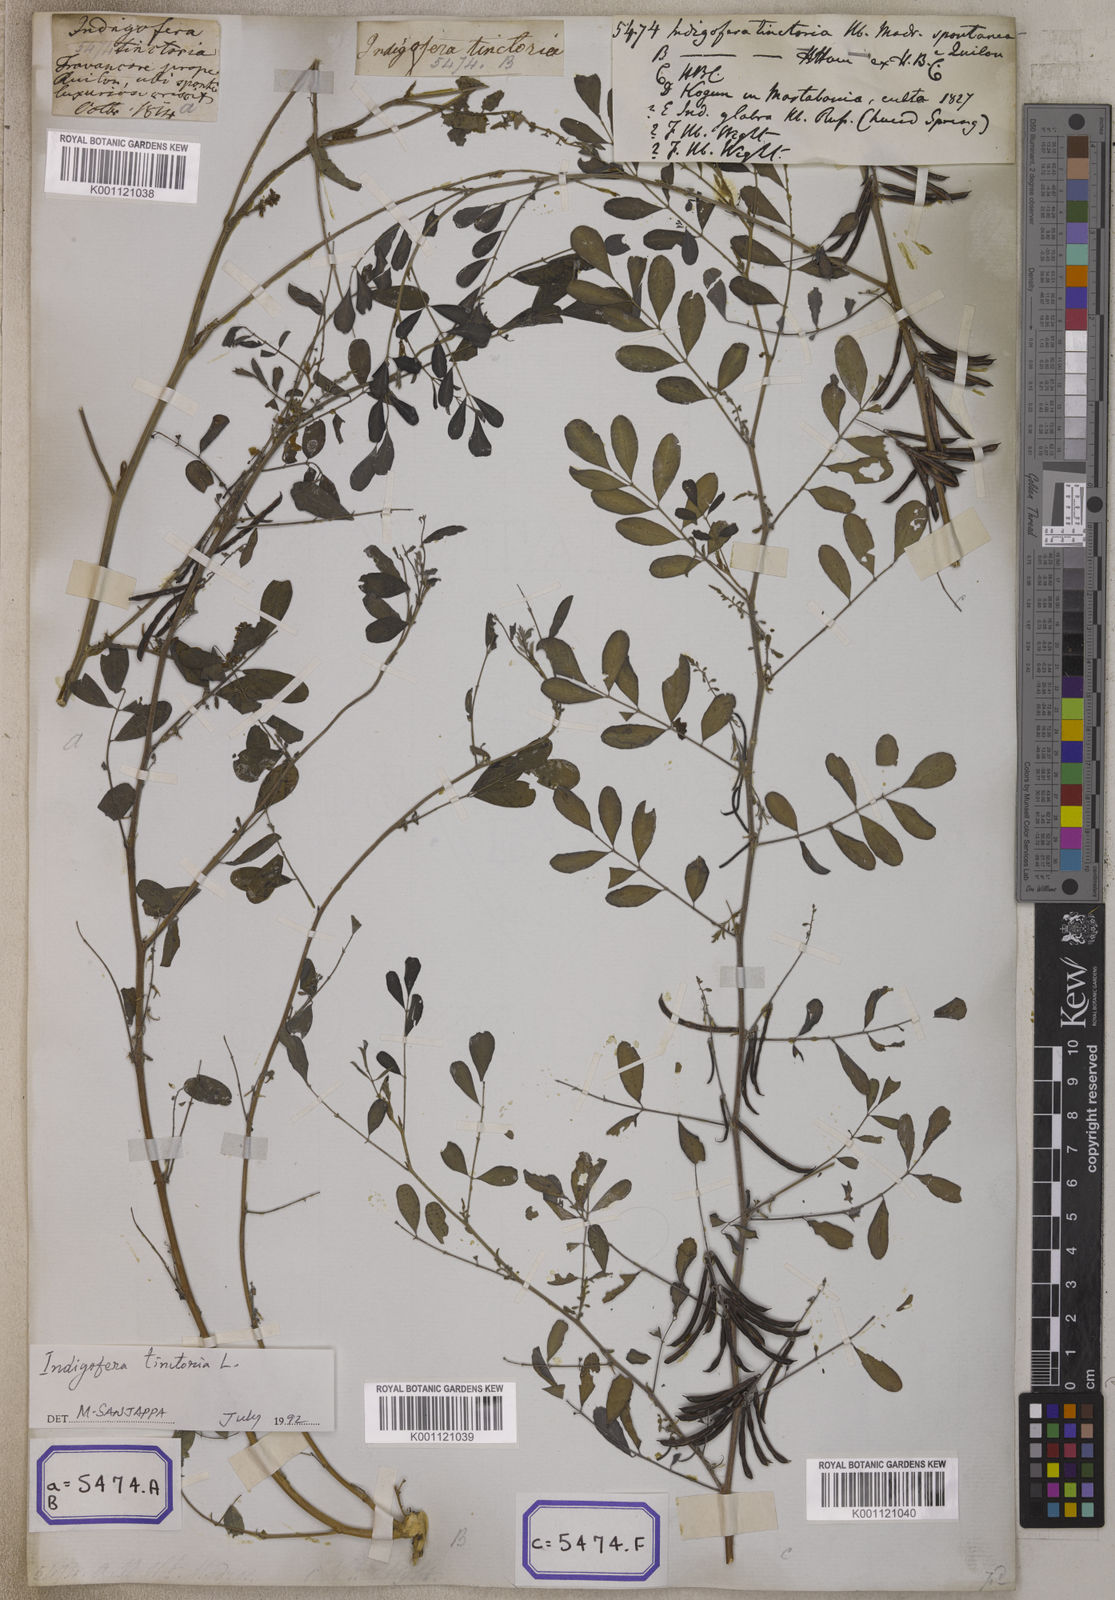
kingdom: Plantae
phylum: Tracheophyta
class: Magnoliopsida
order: Fabales
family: Fabaceae
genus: Indigofera
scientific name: Indigofera tinctoria
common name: True indigo
